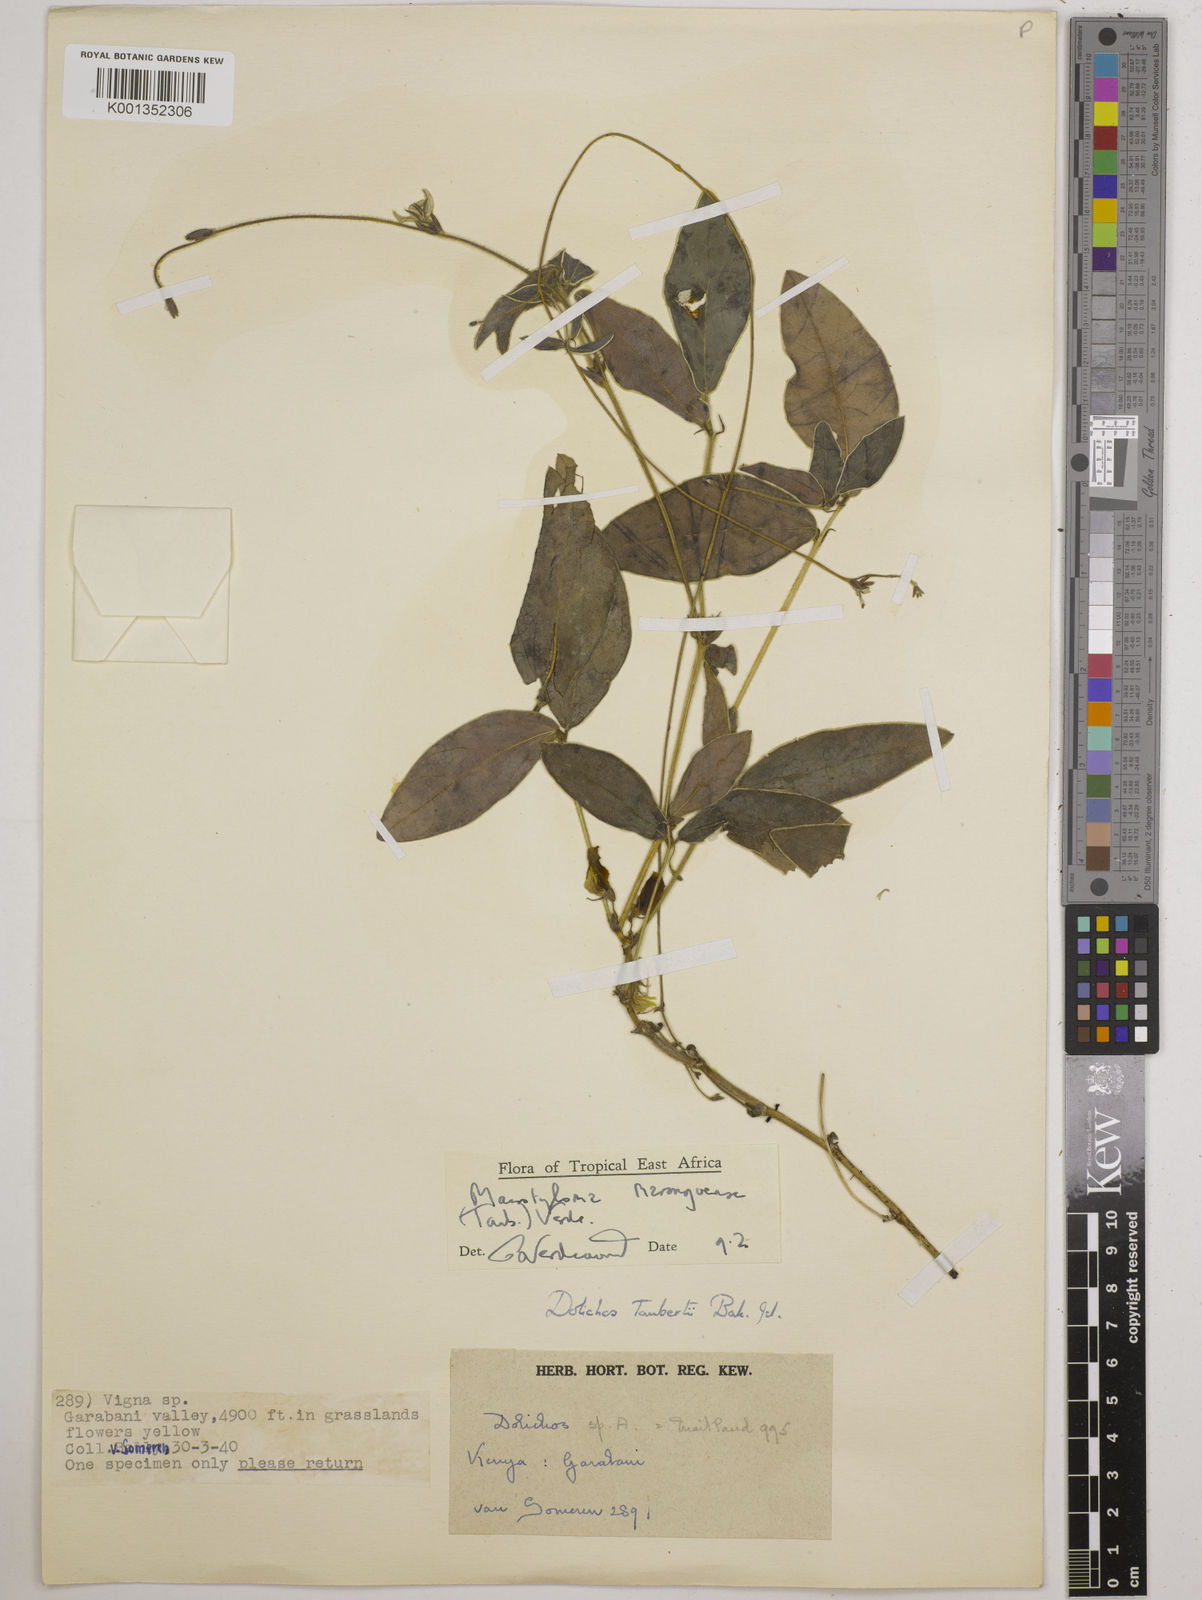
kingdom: Plantae
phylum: Tracheophyta
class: Magnoliopsida
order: Fabales
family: Fabaceae
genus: Macrotyloma
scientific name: Macrotyloma maranguense
